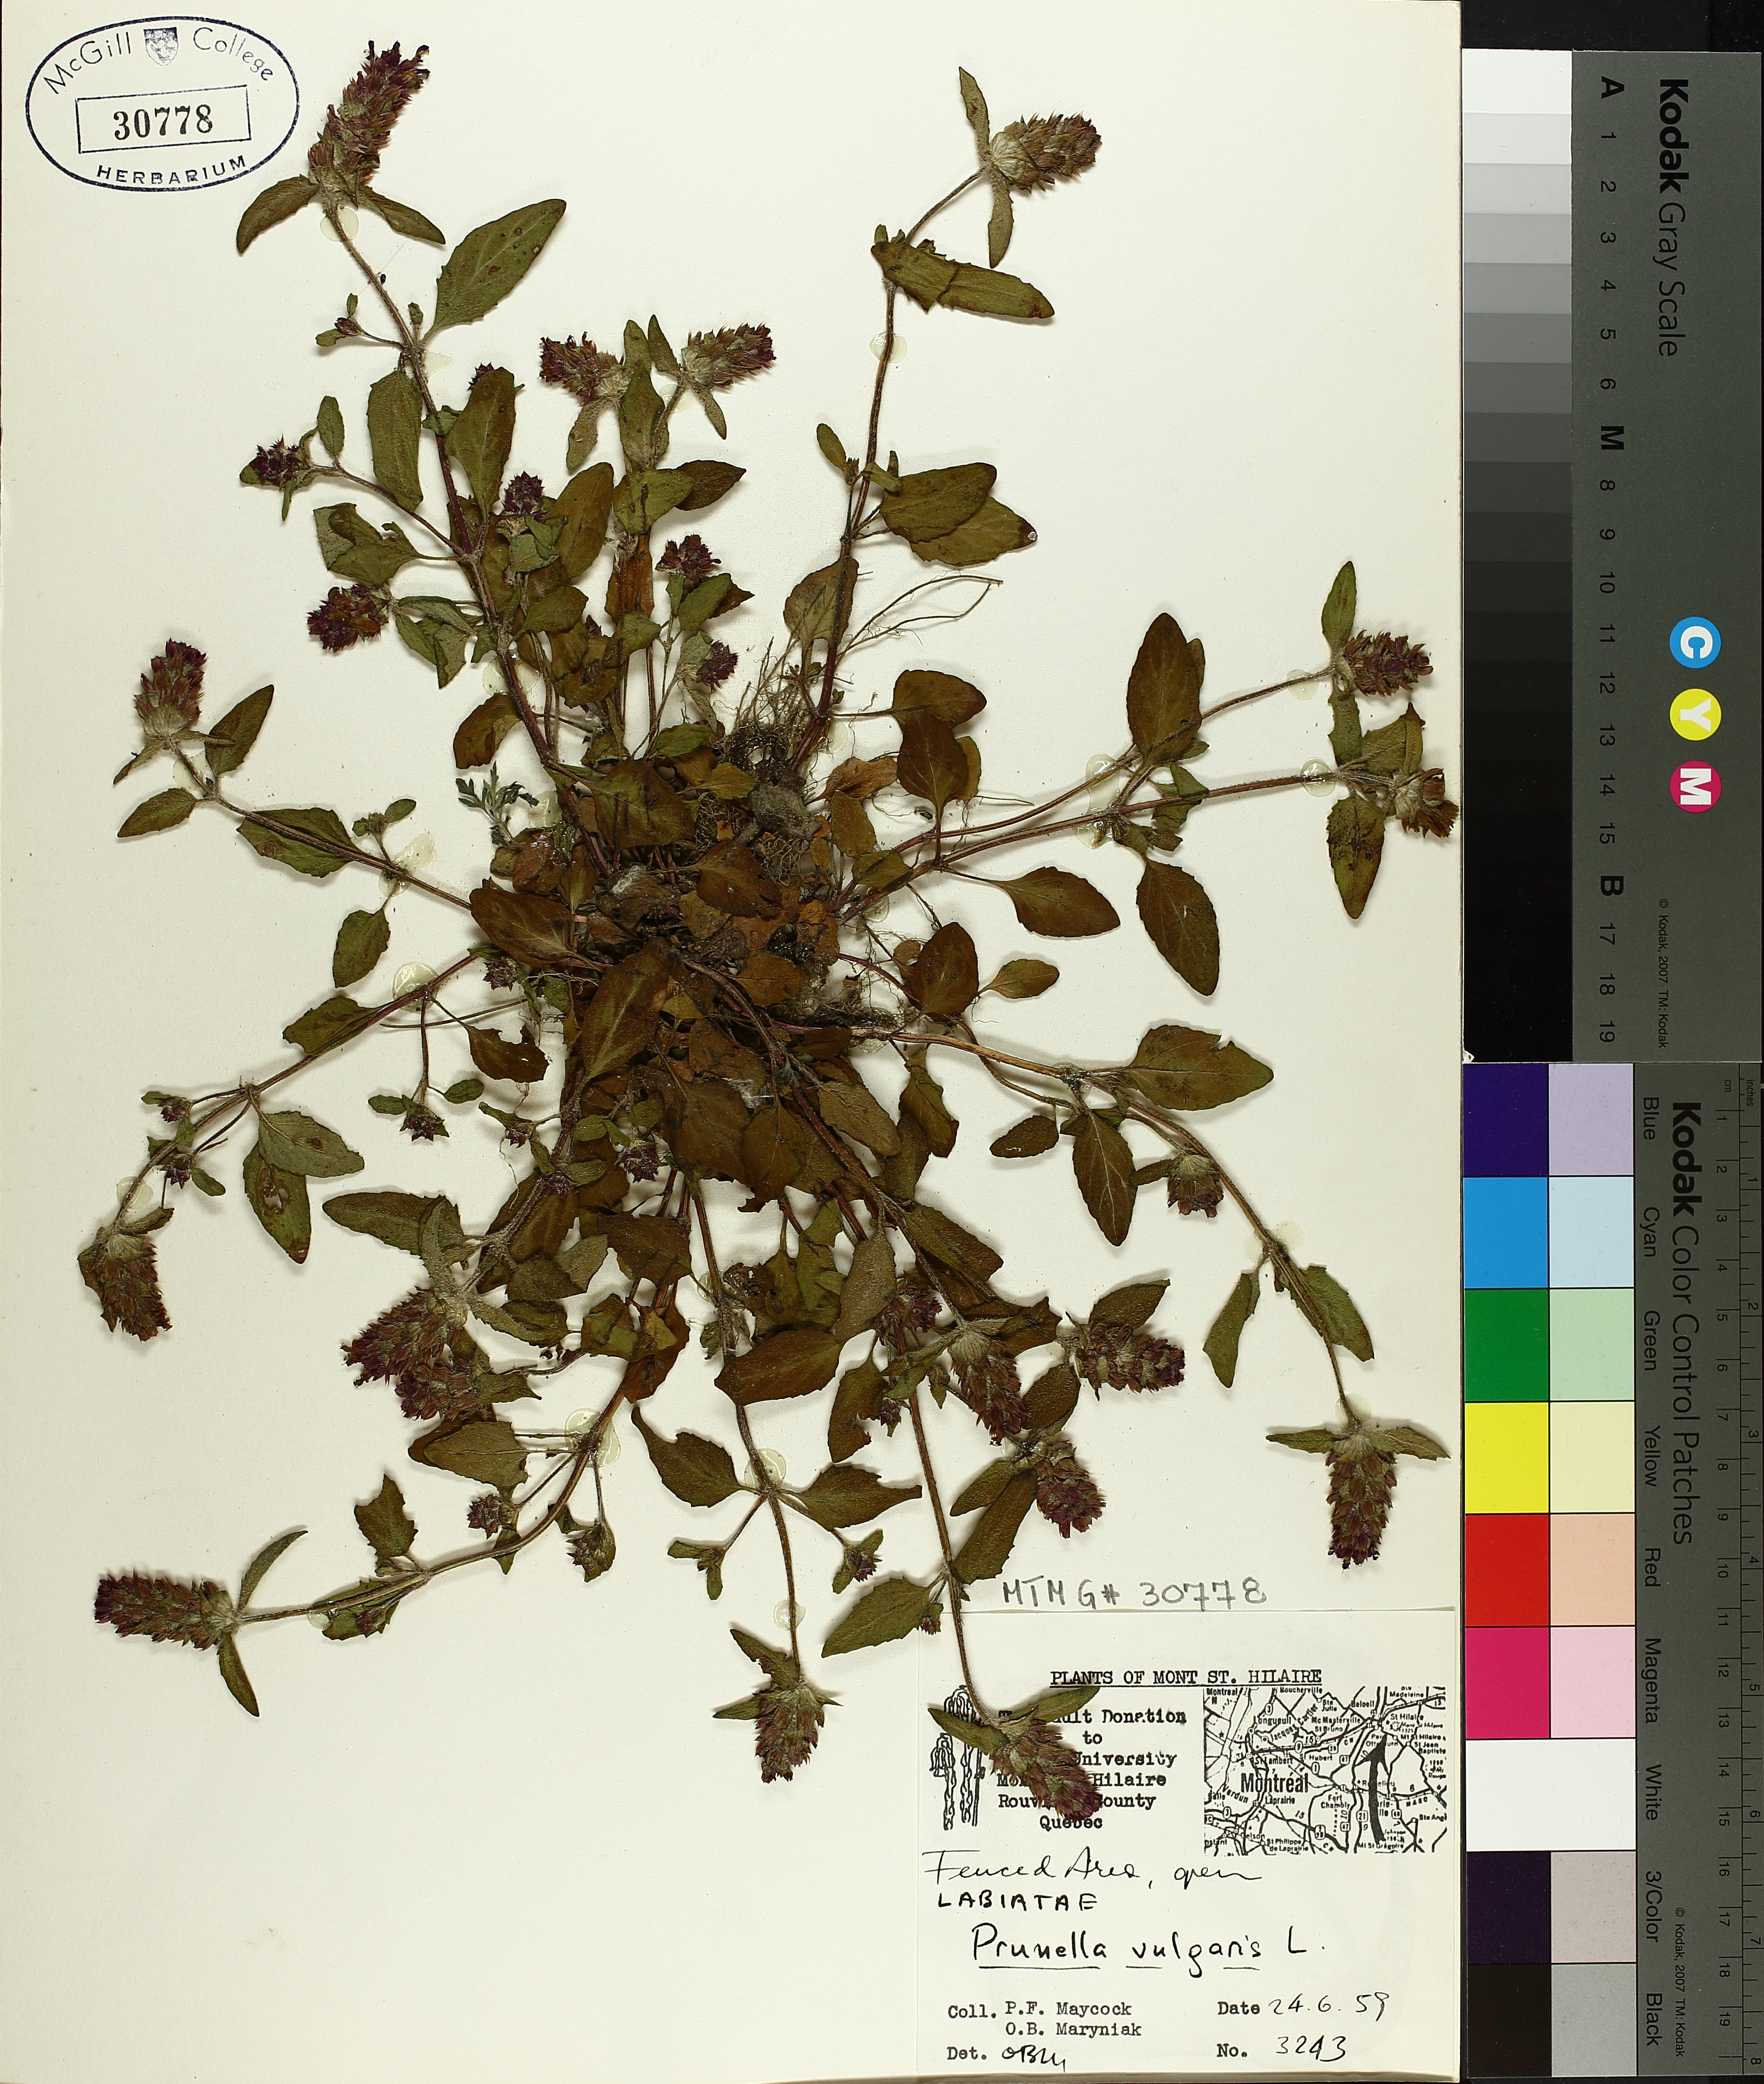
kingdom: Plantae
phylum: Tracheophyta
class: Magnoliopsida
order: Lamiales
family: Lamiaceae
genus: Prunella
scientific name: Prunella vulgaris
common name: Heal-all
